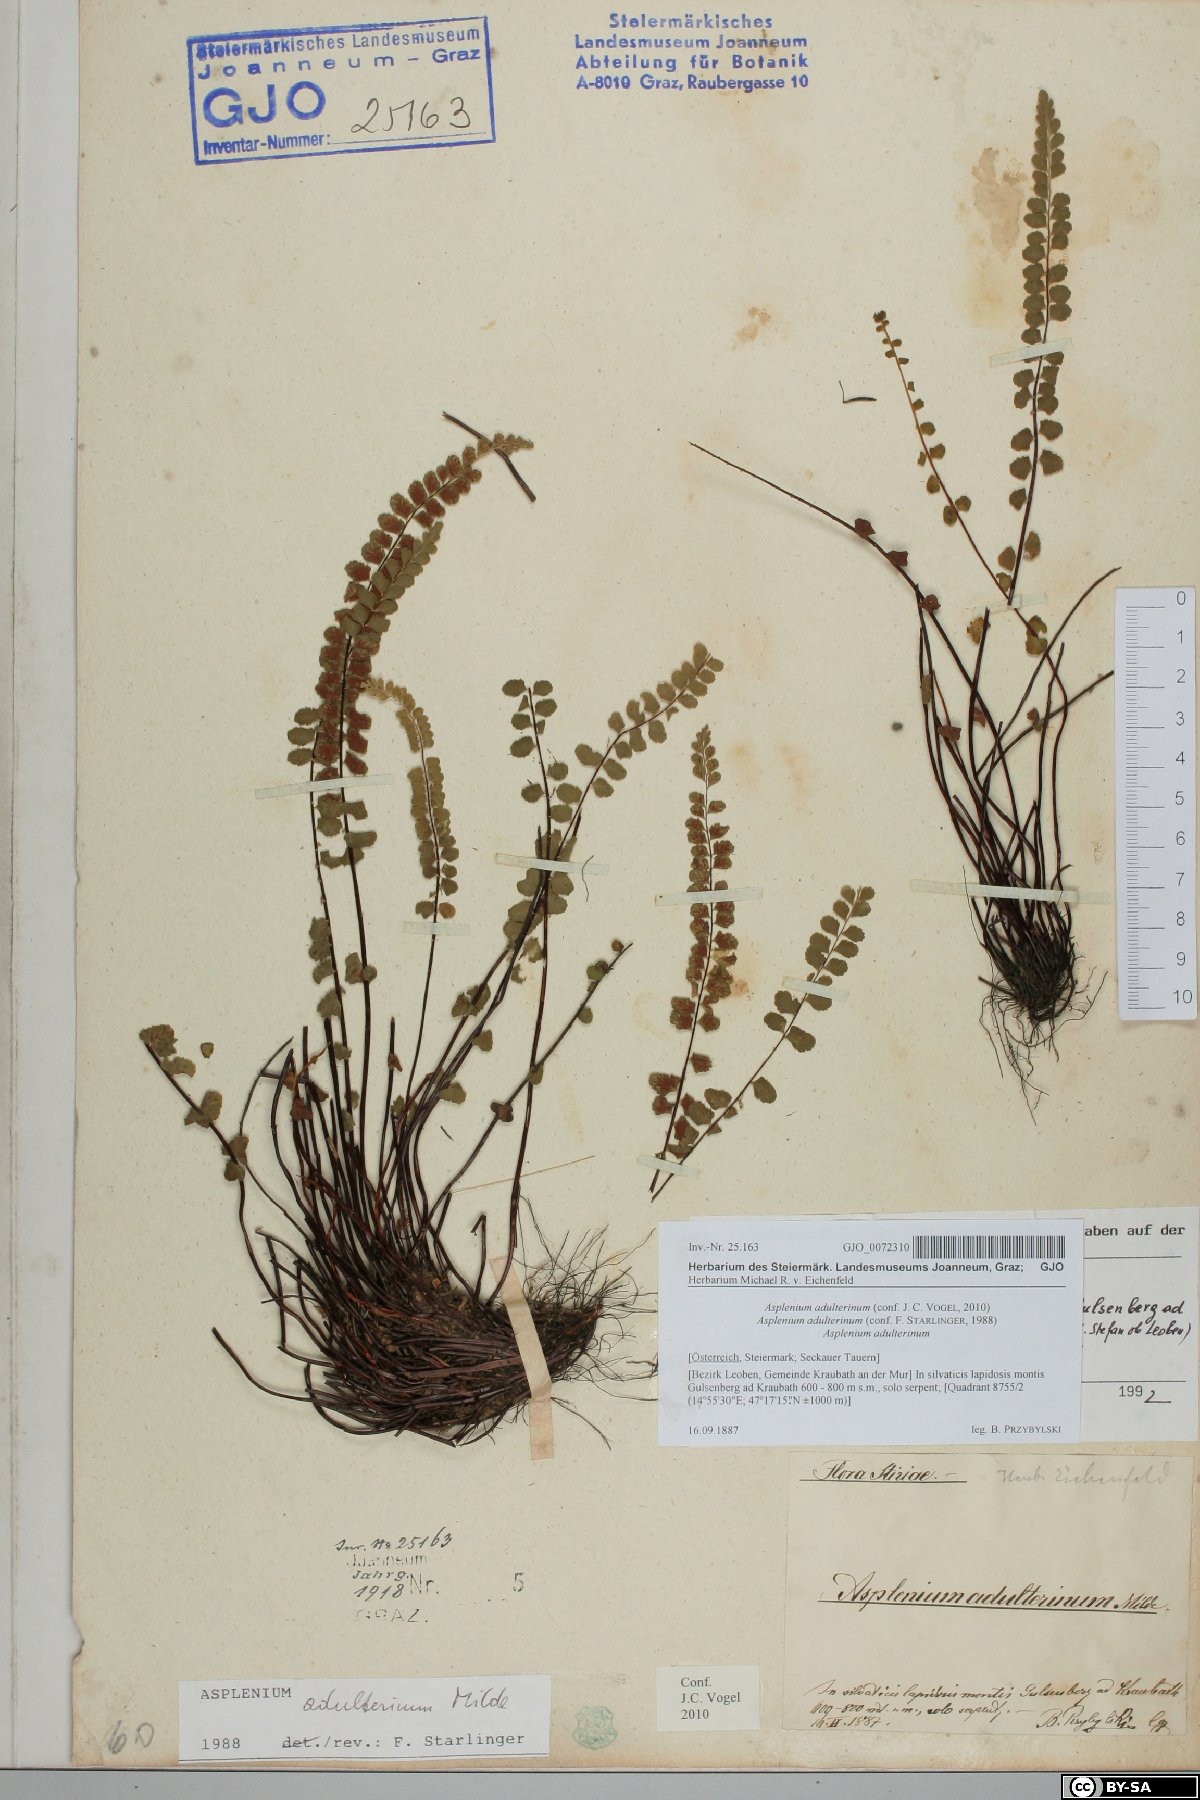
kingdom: Plantae
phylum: Tracheophyta
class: Polypodiopsida
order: Polypodiales
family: Aspleniaceae
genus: Asplenium
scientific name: Asplenium adulterinum
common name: Adulterated spleenwort
